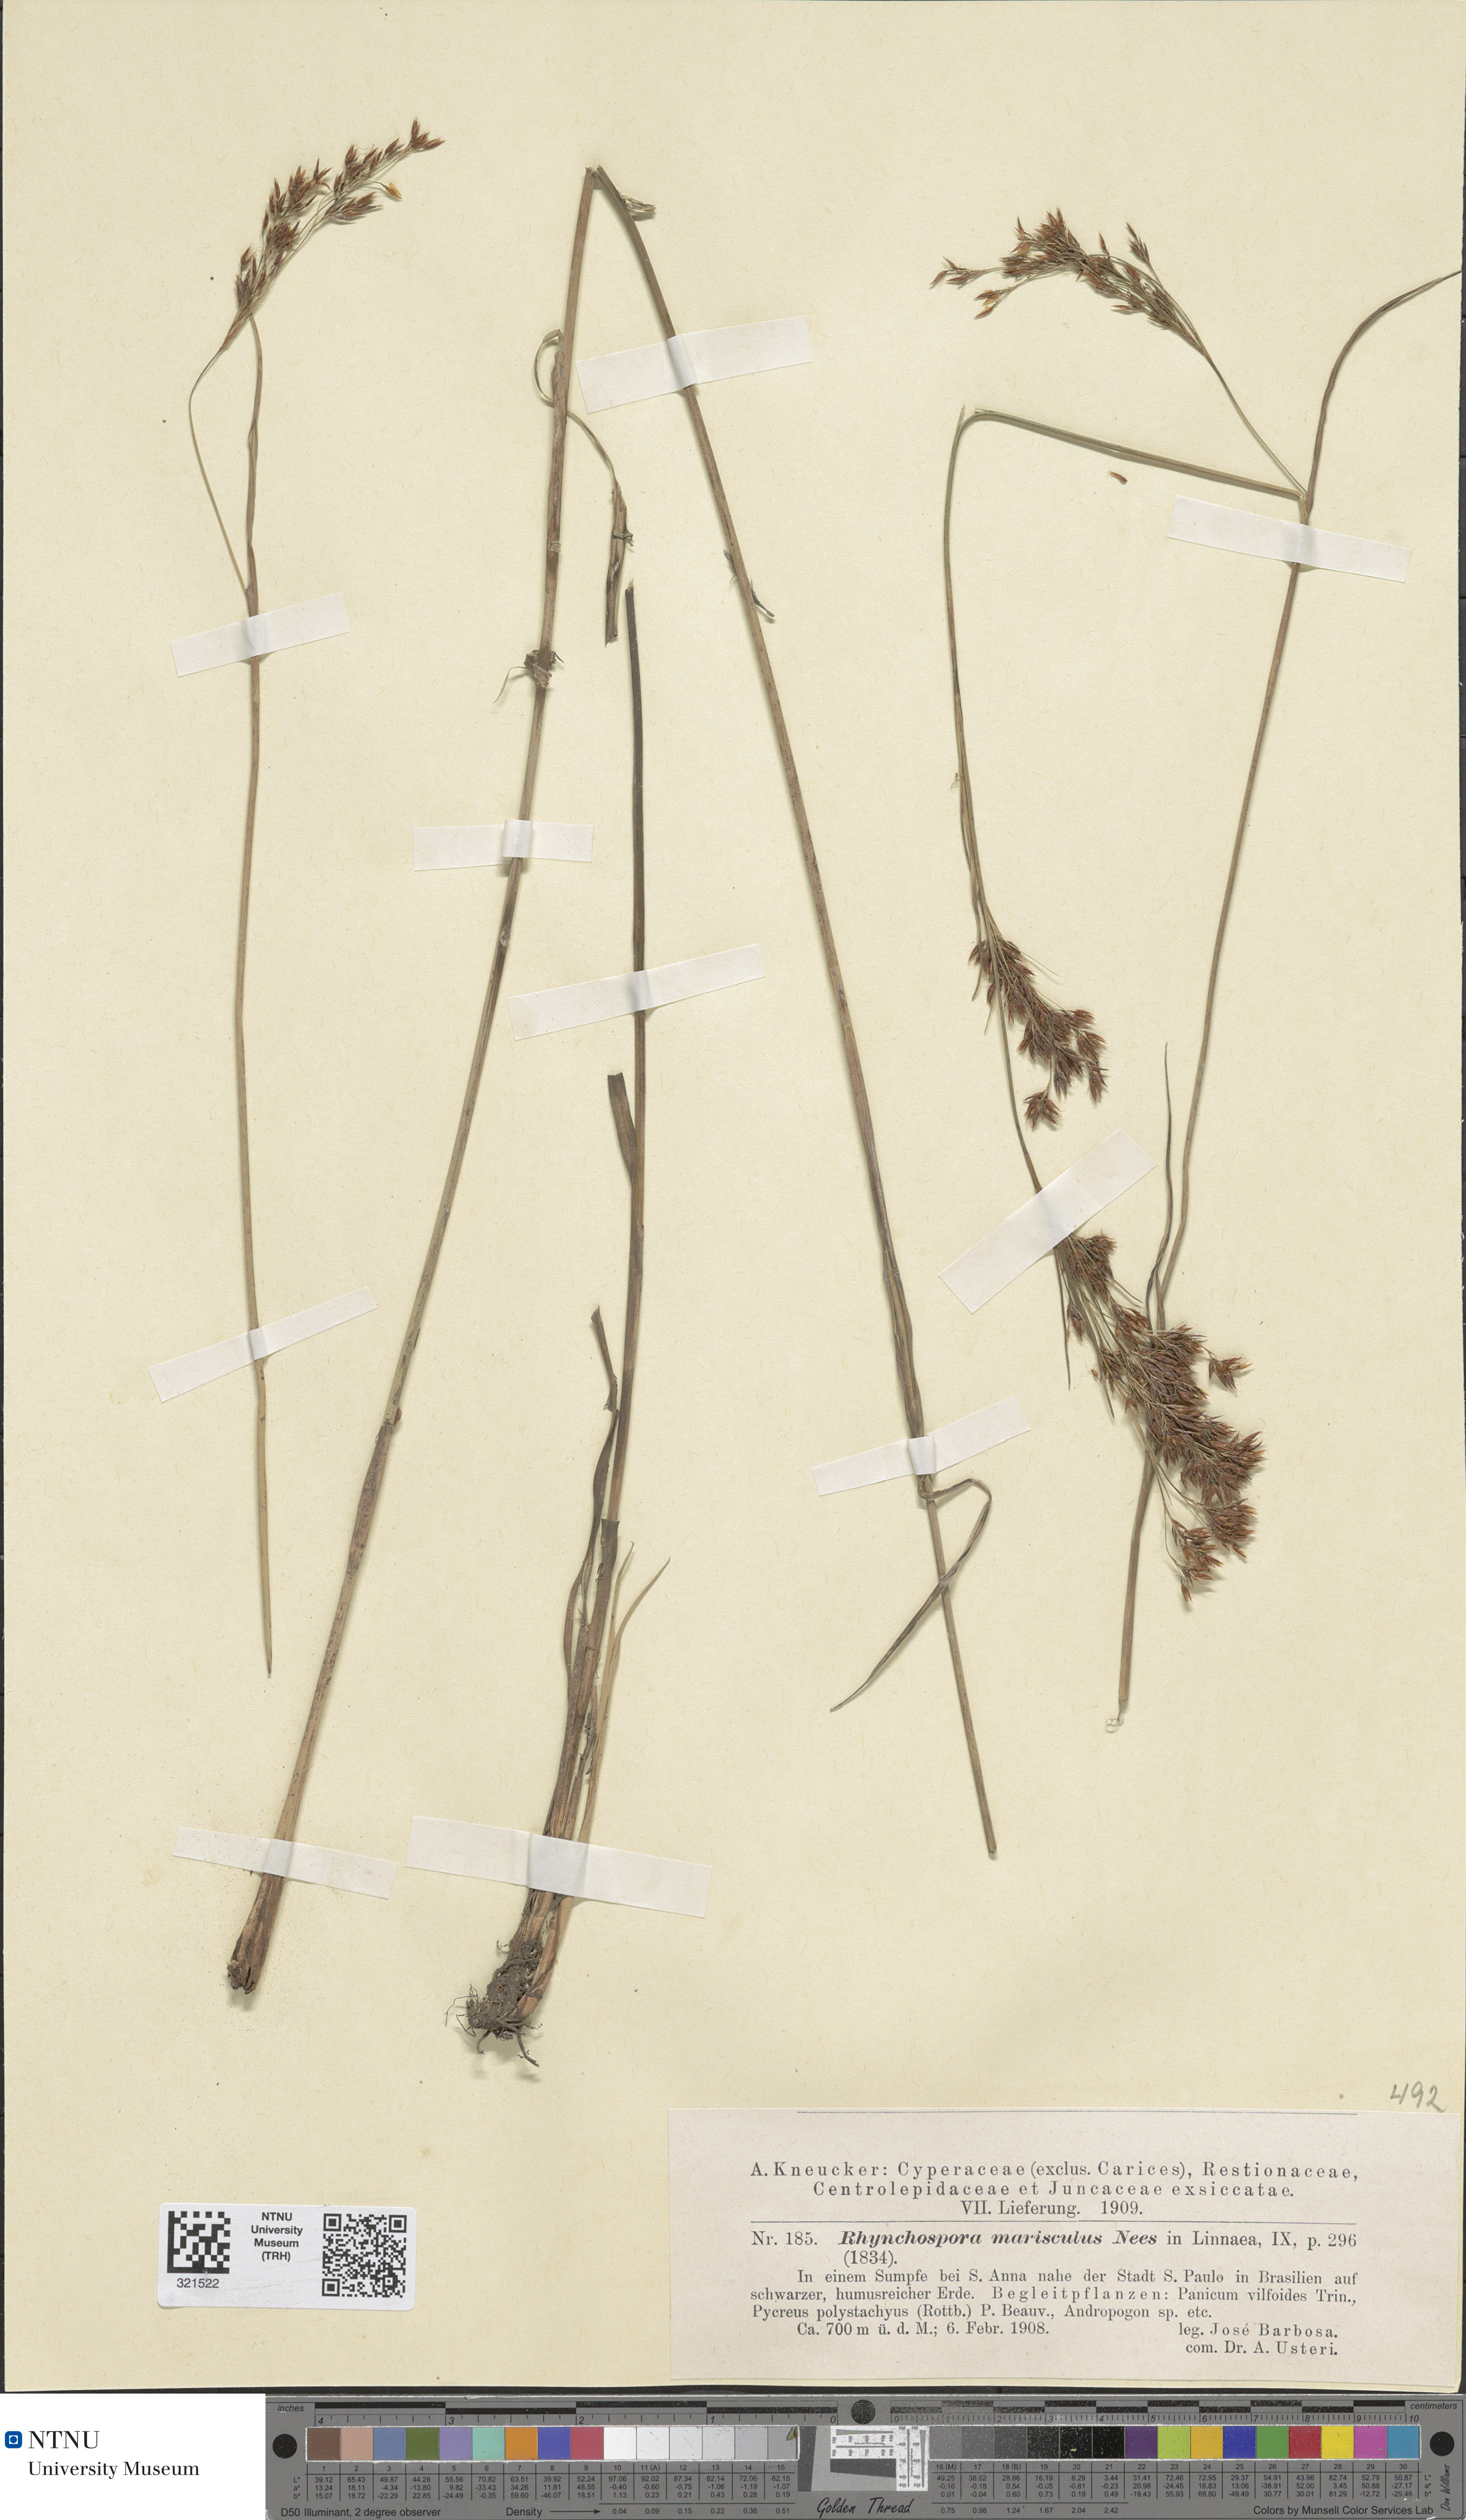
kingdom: Plantae
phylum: Tracheophyta
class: Liliopsida
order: Poales
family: Cyperaceae
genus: Rhynchospora
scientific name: Rhynchospora marisculus
